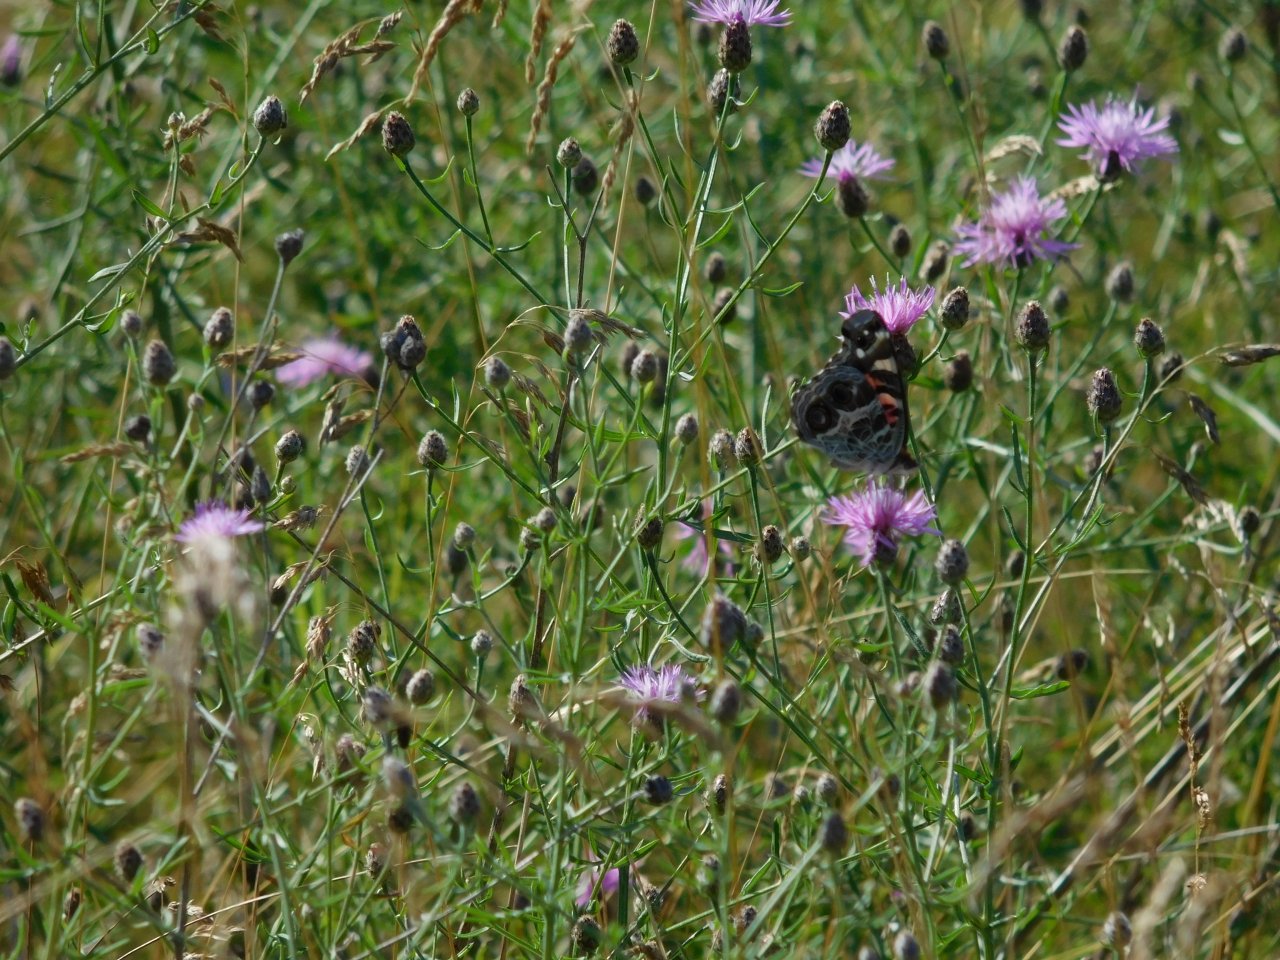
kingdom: Animalia
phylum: Arthropoda
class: Insecta
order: Lepidoptera
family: Nymphalidae
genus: Vanessa
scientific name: Vanessa virginiensis
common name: American Lady
